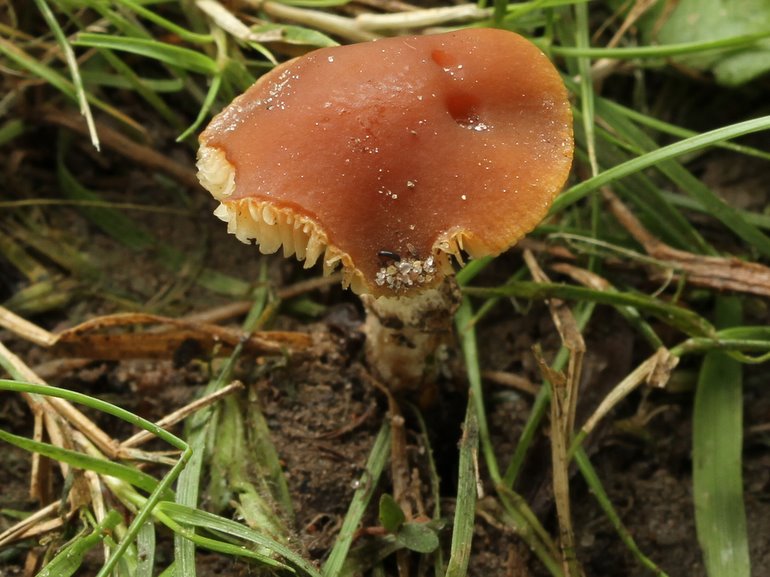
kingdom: Fungi
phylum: Basidiomycota
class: Agaricomycetes
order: Agaricales
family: Bolbitiaceae
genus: Conocybe
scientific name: Conocybe arrhenii
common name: ring-dansehat
